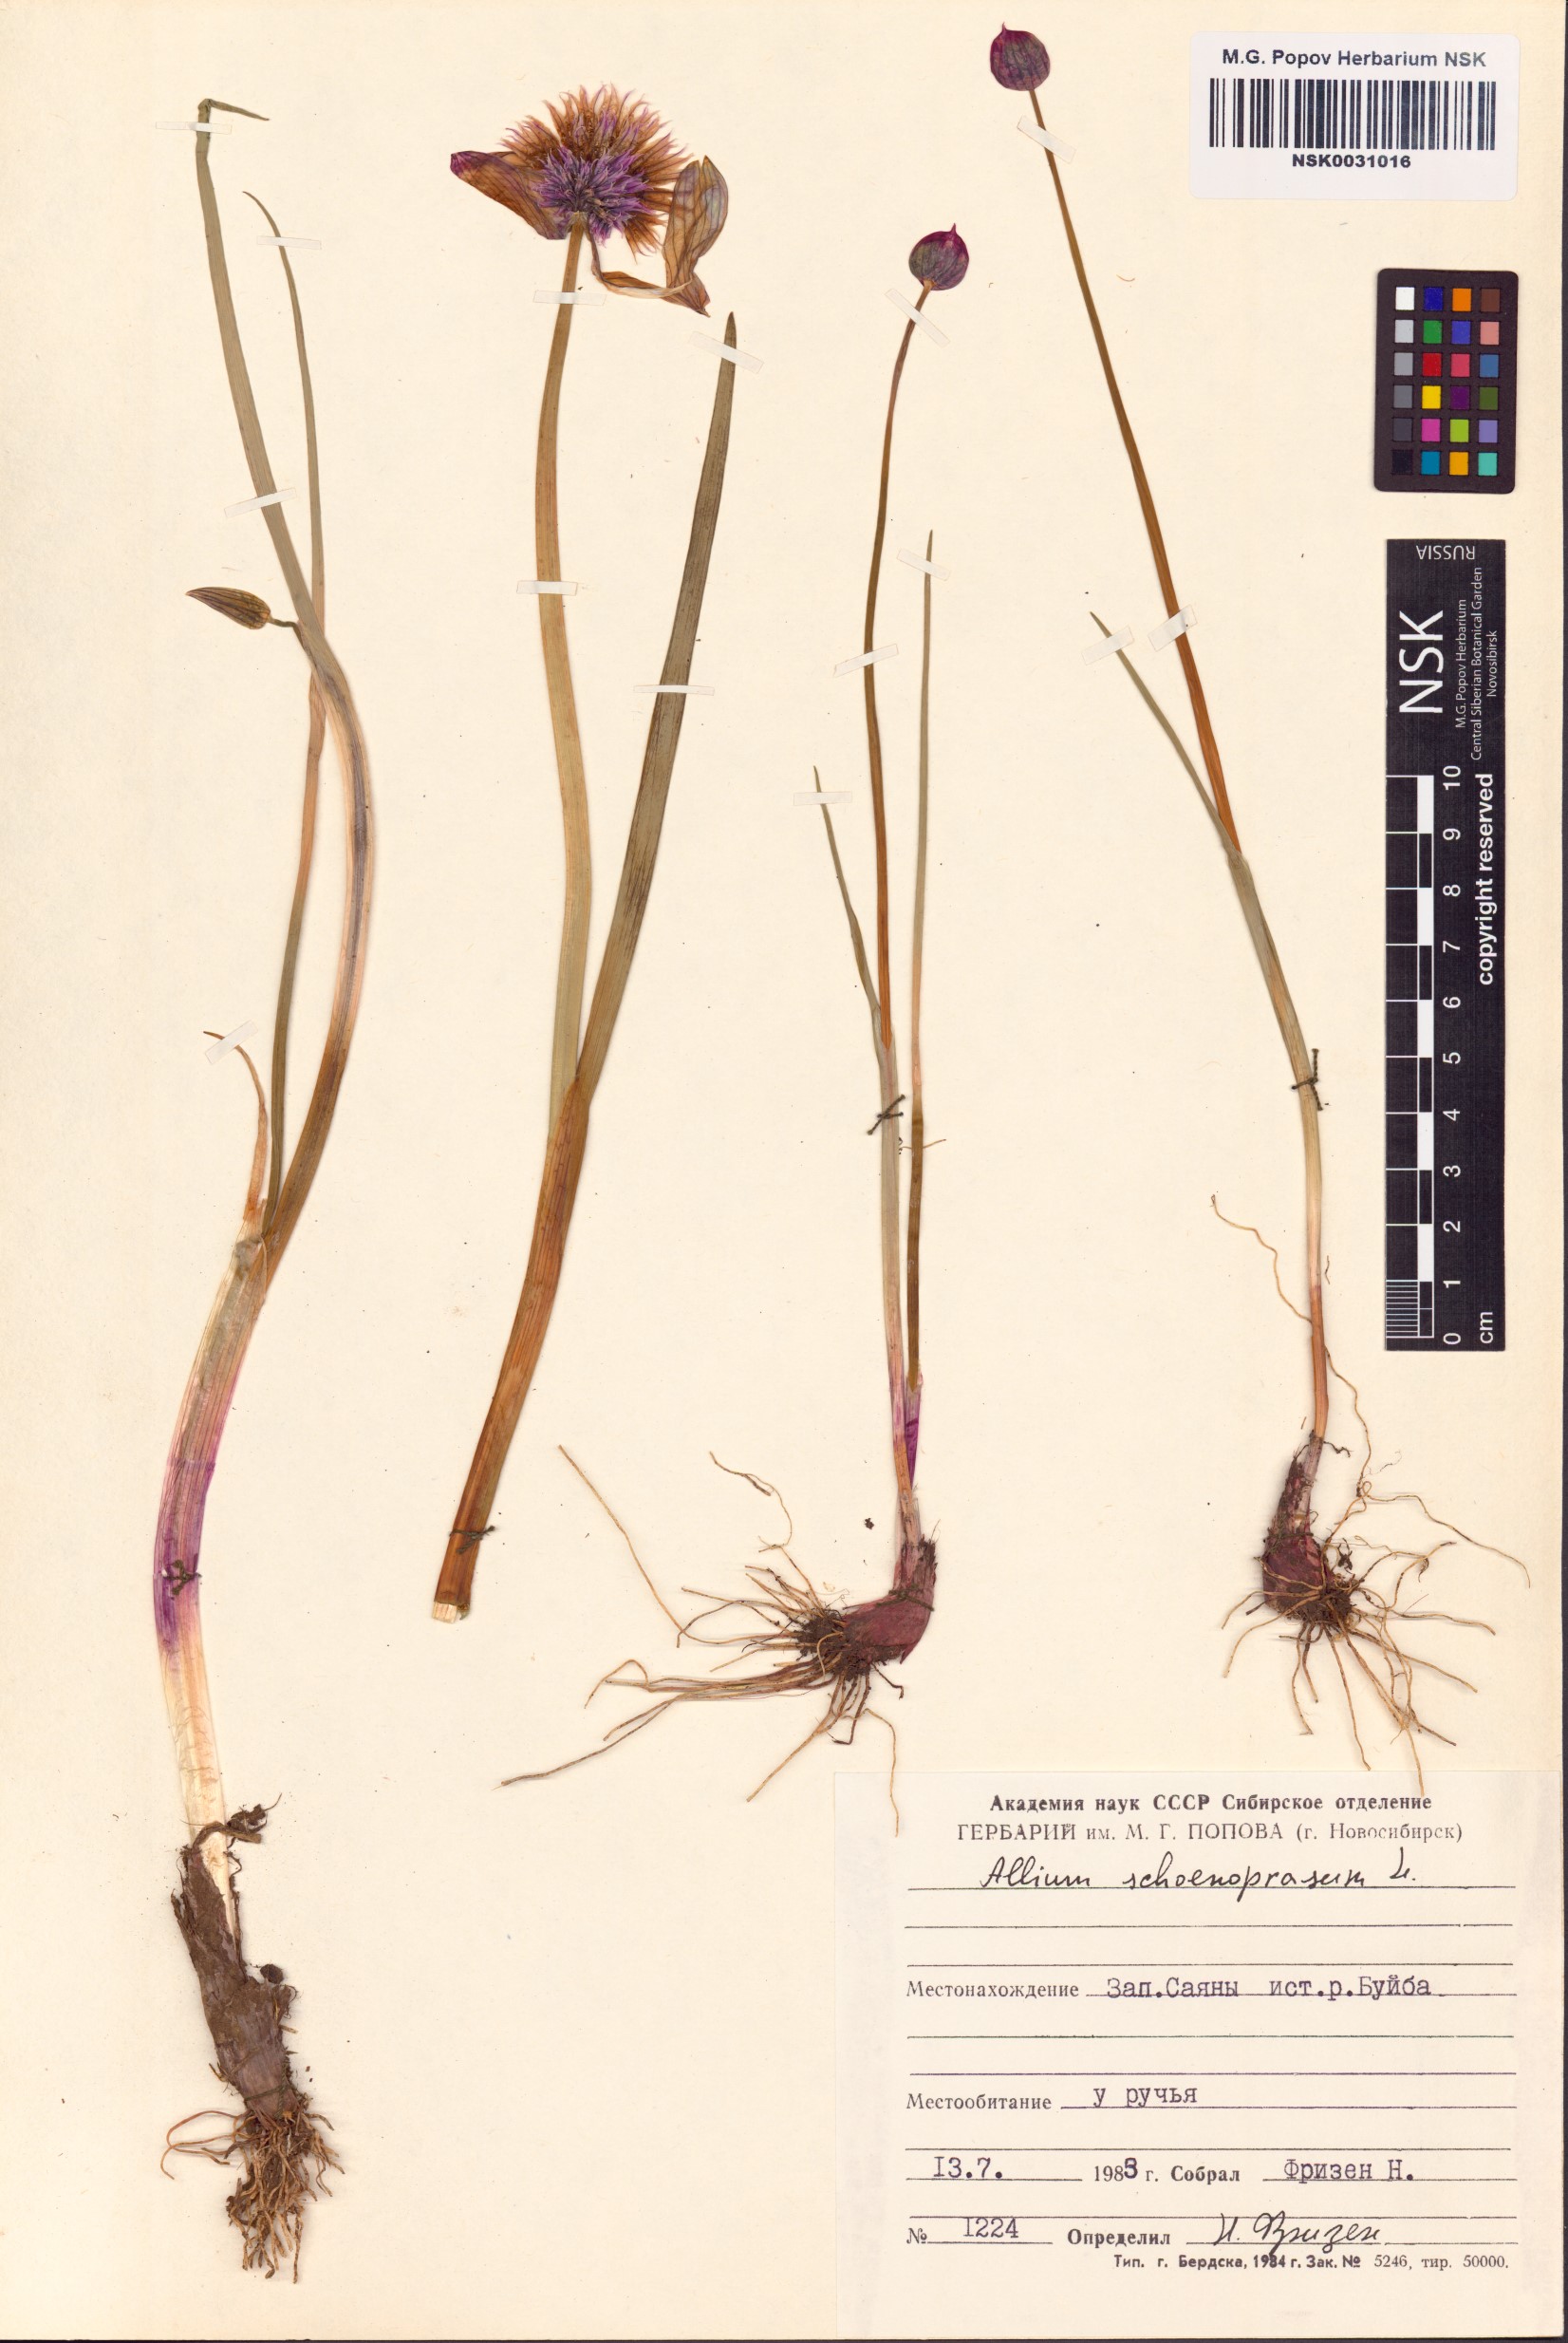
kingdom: Plantae
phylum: Tracheophyta
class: Liliopsida
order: Asparagales
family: Amaryllidaceae
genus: Allium
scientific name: Allium schoenoprasum
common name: Chives
